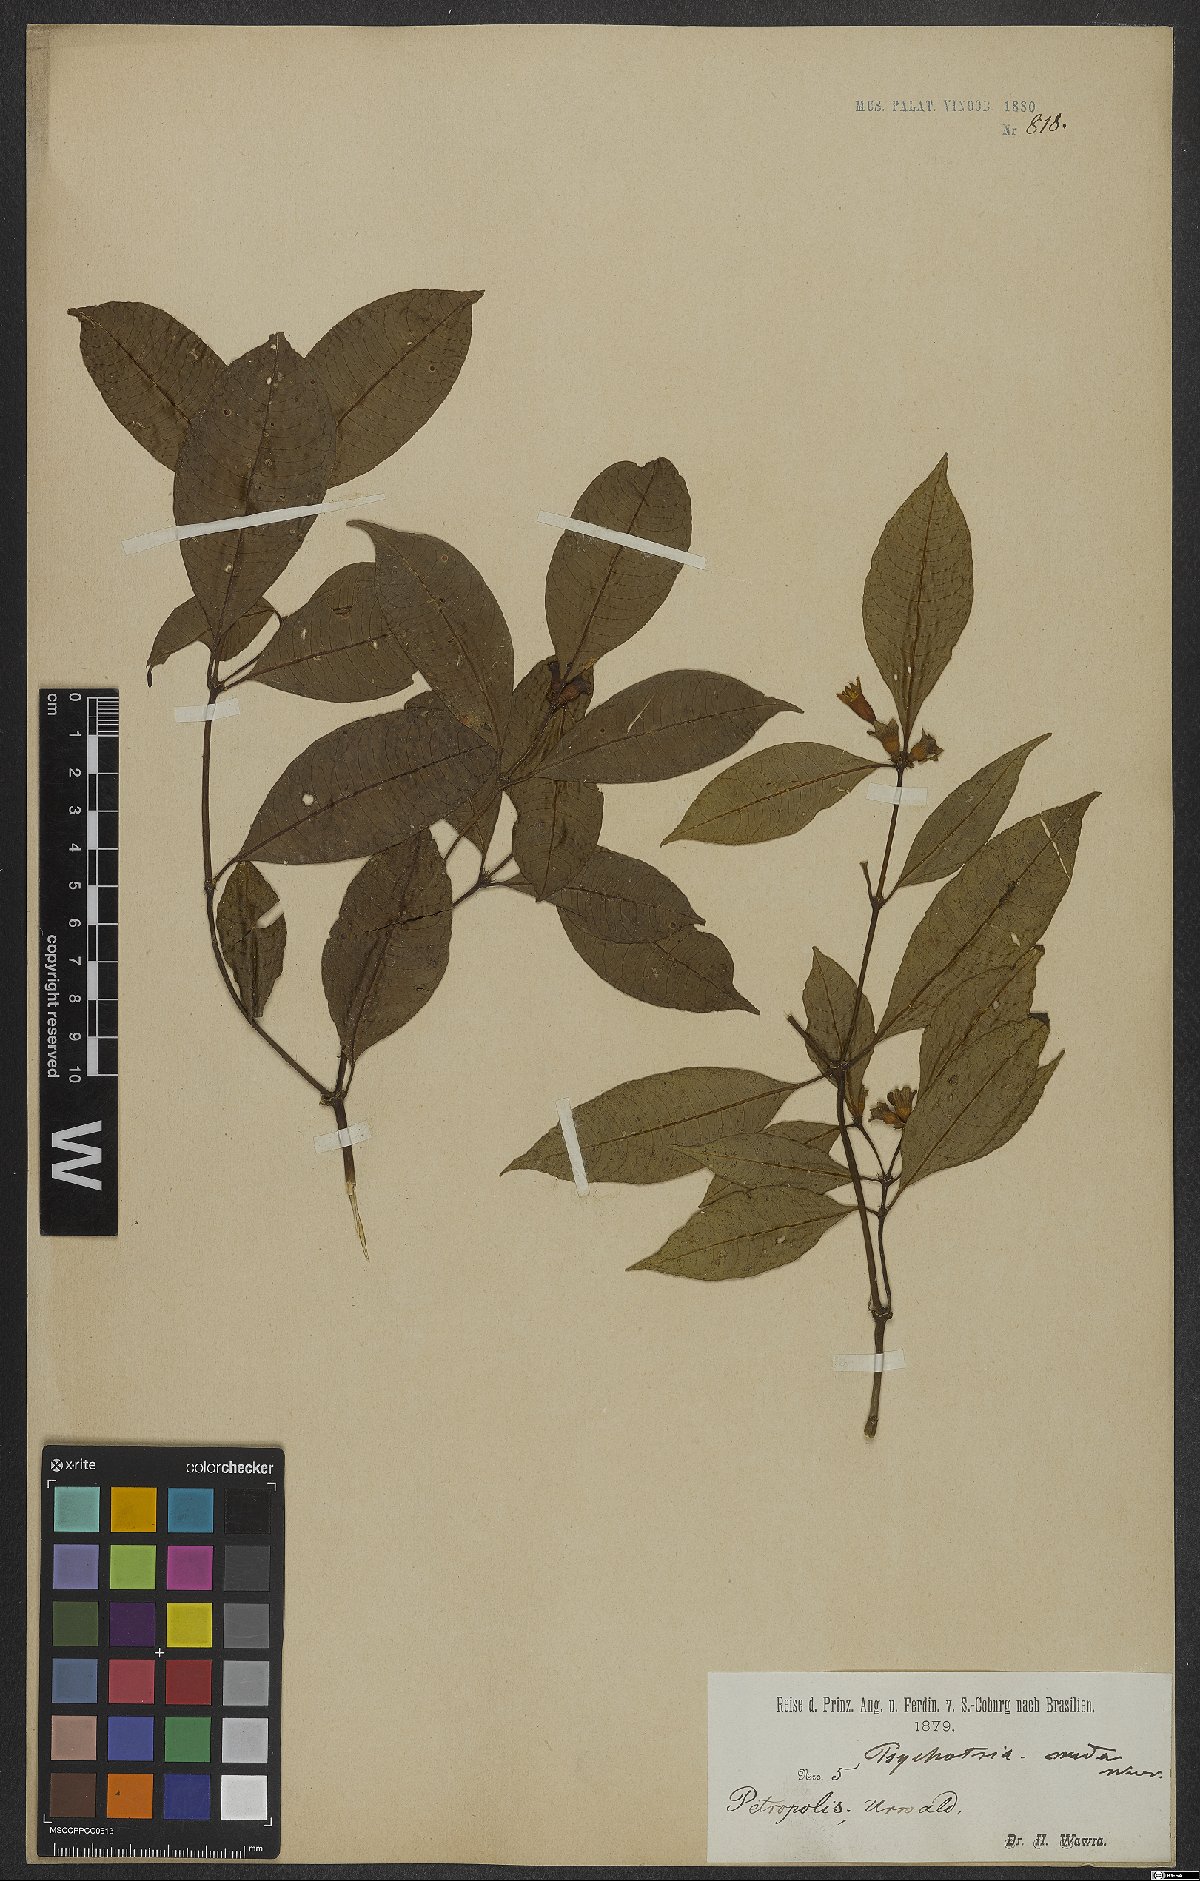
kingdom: Plantae
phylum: Tracheophyta
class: Magnoliopsida
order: Gentianales
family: Rubiaceae
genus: Psychotria
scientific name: Psychotria nuda
